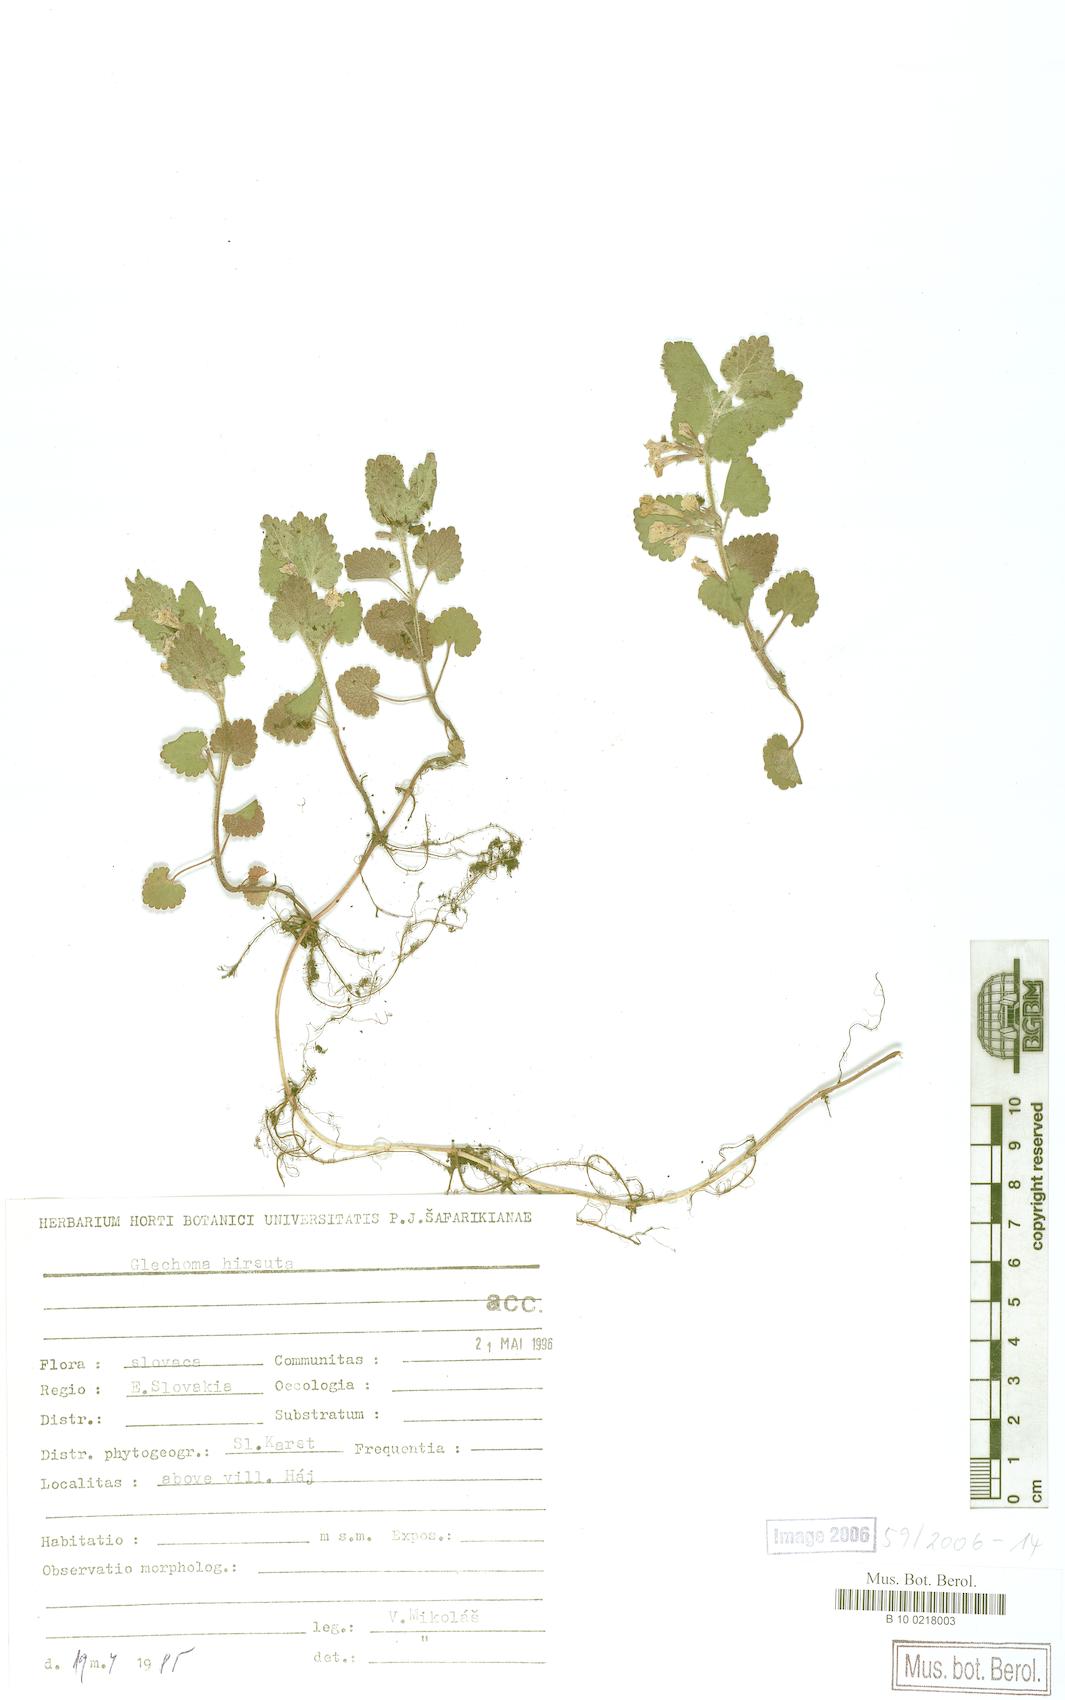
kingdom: Plantae
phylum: Tracheophyta
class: Magnoliopsida
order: Lamiales
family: Lamiaceae
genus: Glechoma
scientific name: Glechoma hirsuta
